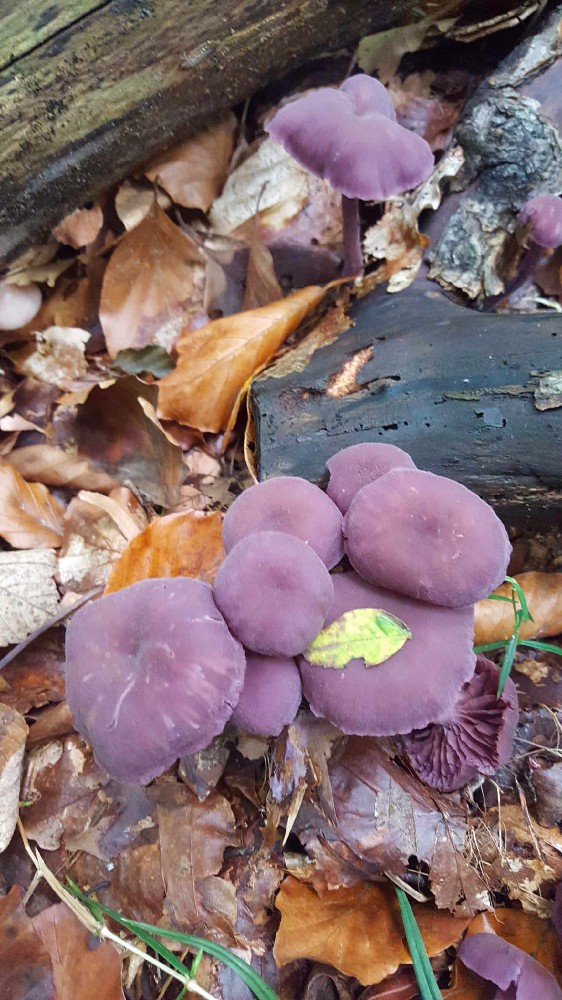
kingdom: Fungi
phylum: Basidiomycota
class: Agaricomycetes
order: Agaricales
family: Hydnangiaceae
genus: Laccaria
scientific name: Laccaria amethystina
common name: violet ametysthat
